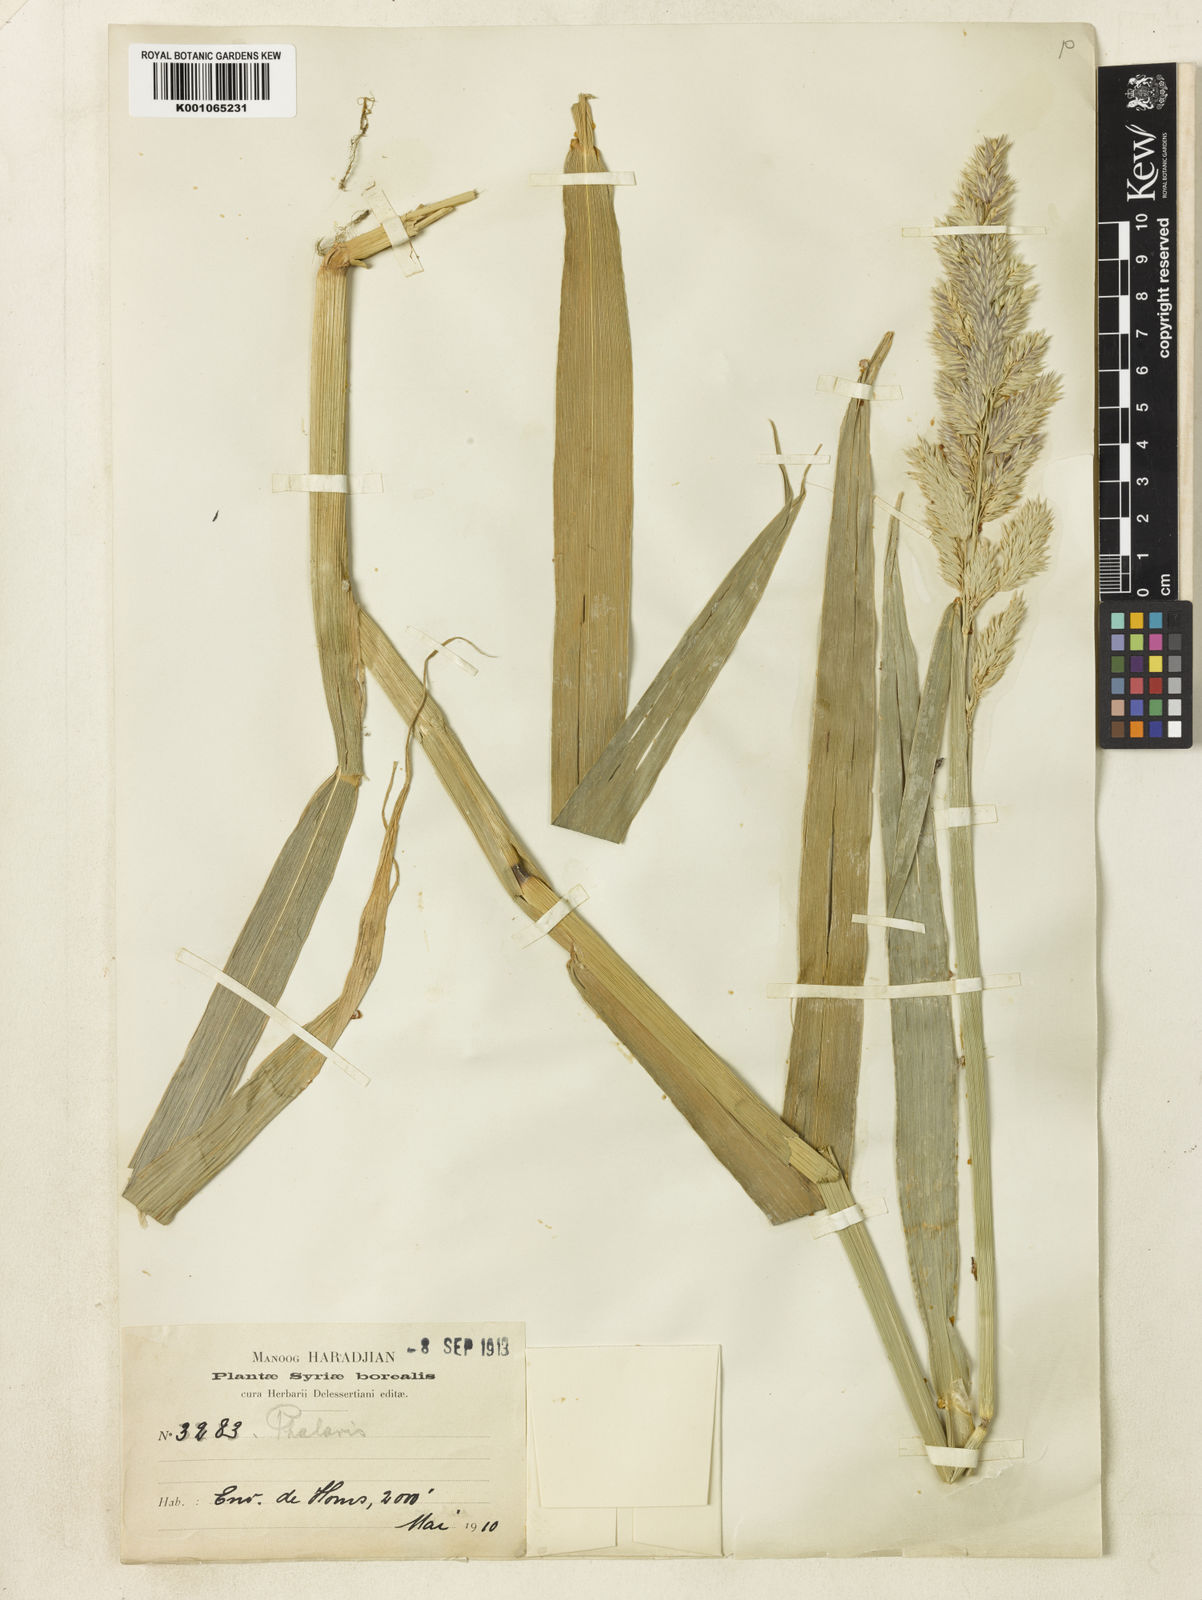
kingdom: Plantae
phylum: Tracheophyta
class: Liliopsida
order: Poales
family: Poaceae
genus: Phalaris
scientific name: Phalaris arundinacea
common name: Reed canary-grass
